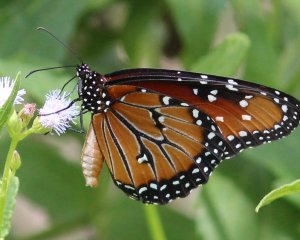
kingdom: Animalia
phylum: Arthropoda
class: Insecta
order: Lepidoptera
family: Nymphalidae
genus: Danaus
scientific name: Danaus gilippus
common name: Queen
